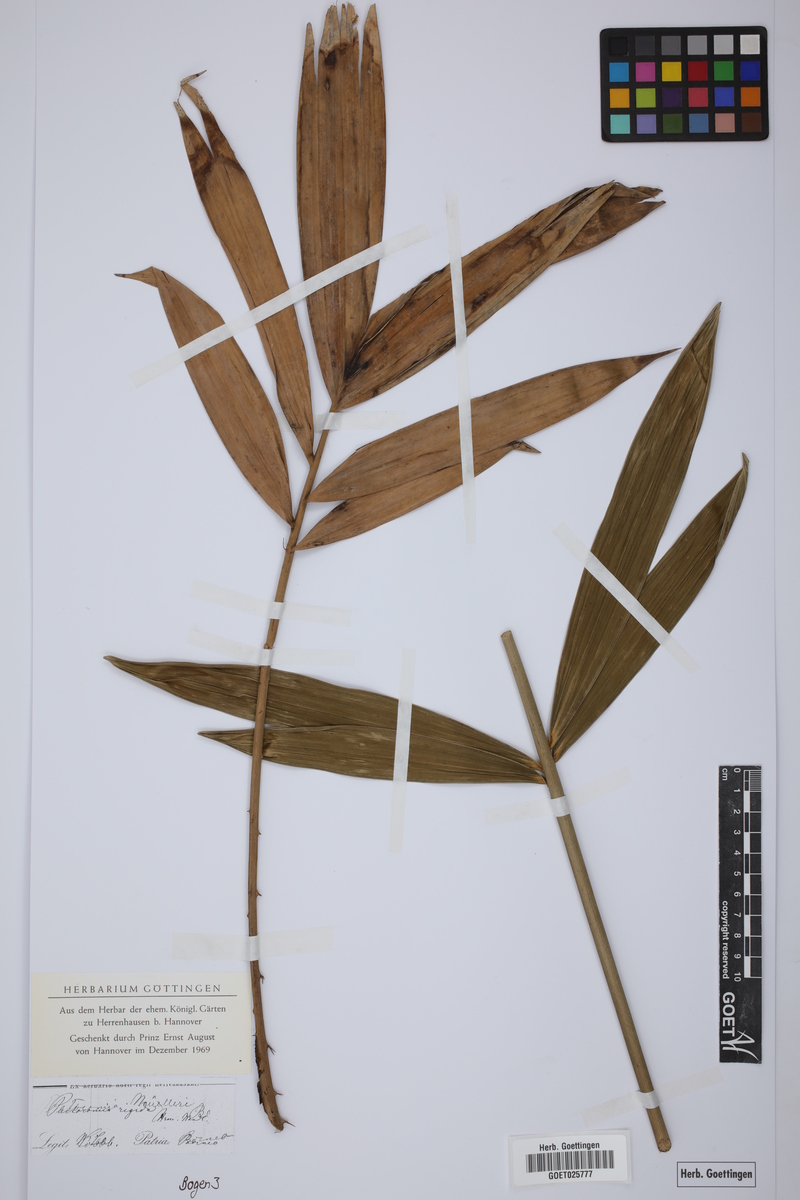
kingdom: Plantae
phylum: Tracheophyta
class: Liliopsida
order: Arecales
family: Arecaceae
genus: Plectocomia
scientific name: Plectocomia mulleri
